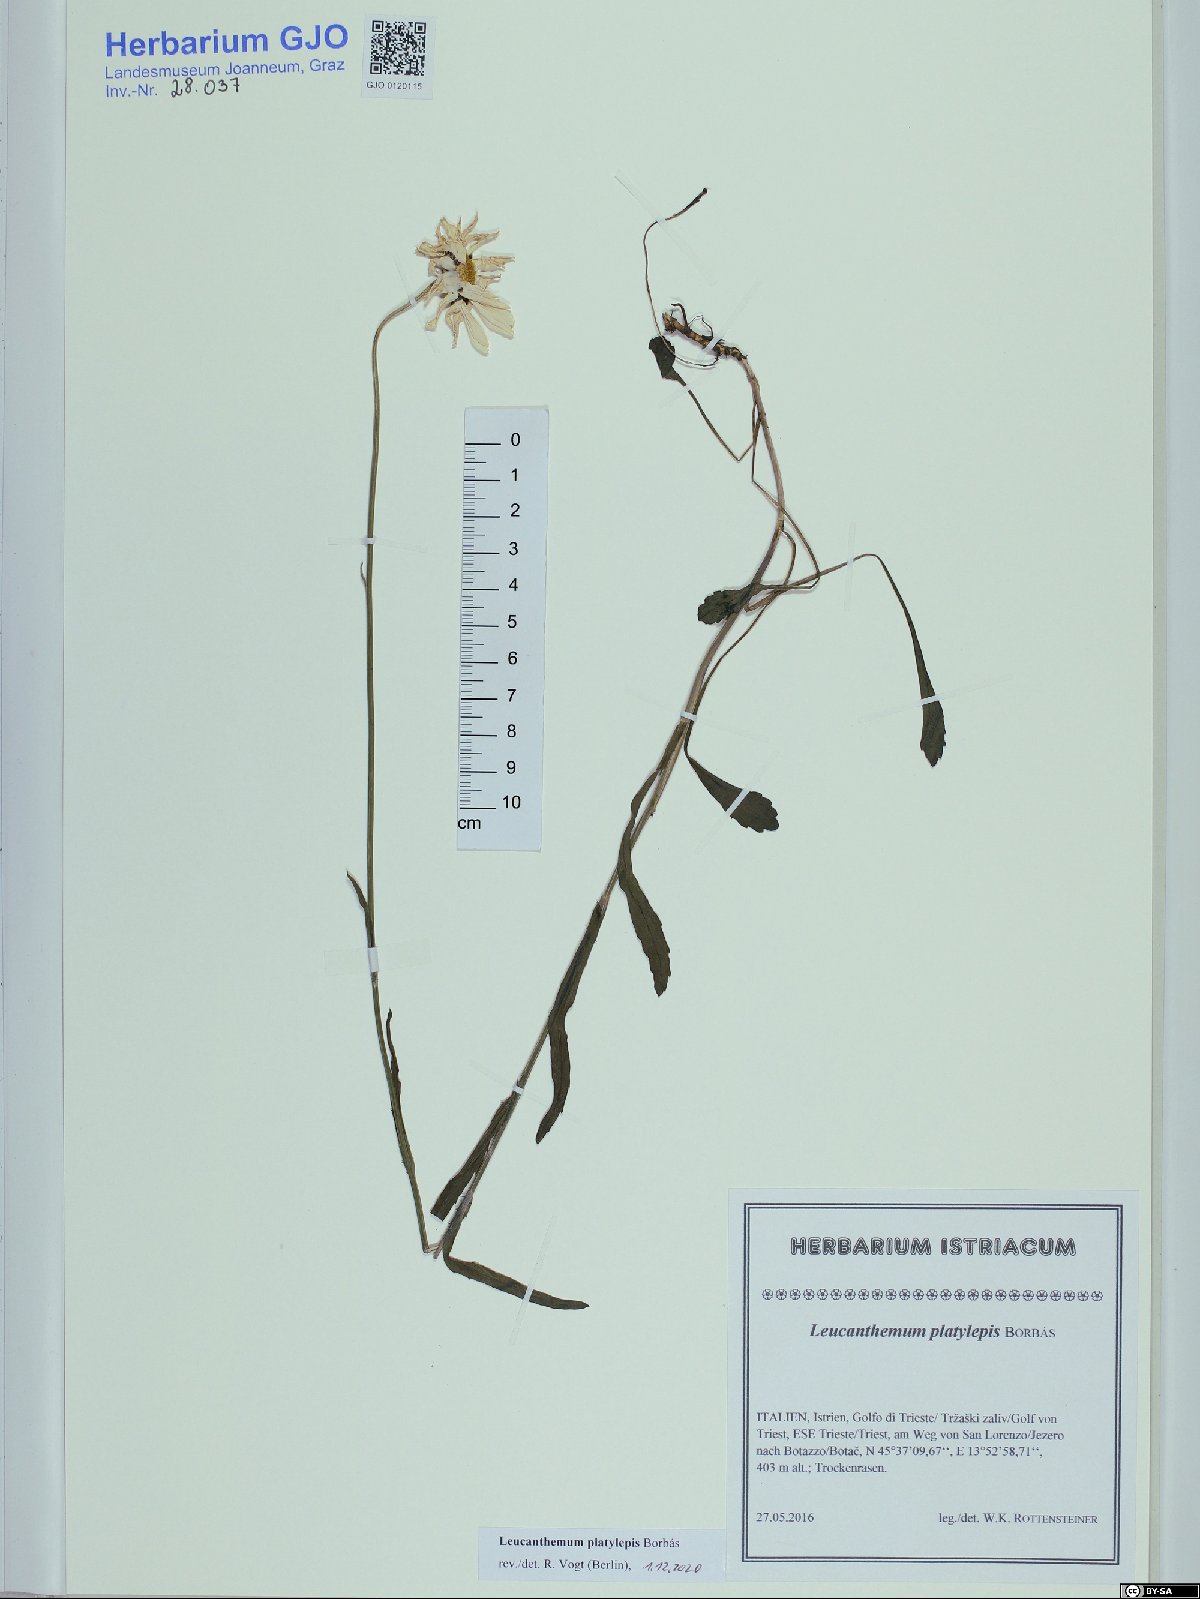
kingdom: Plantae
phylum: Tracheophyta
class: Magnoliopsida
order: Asterales
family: Asteraceae
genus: Leucanthemum
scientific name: Leucanthemum platylepis
